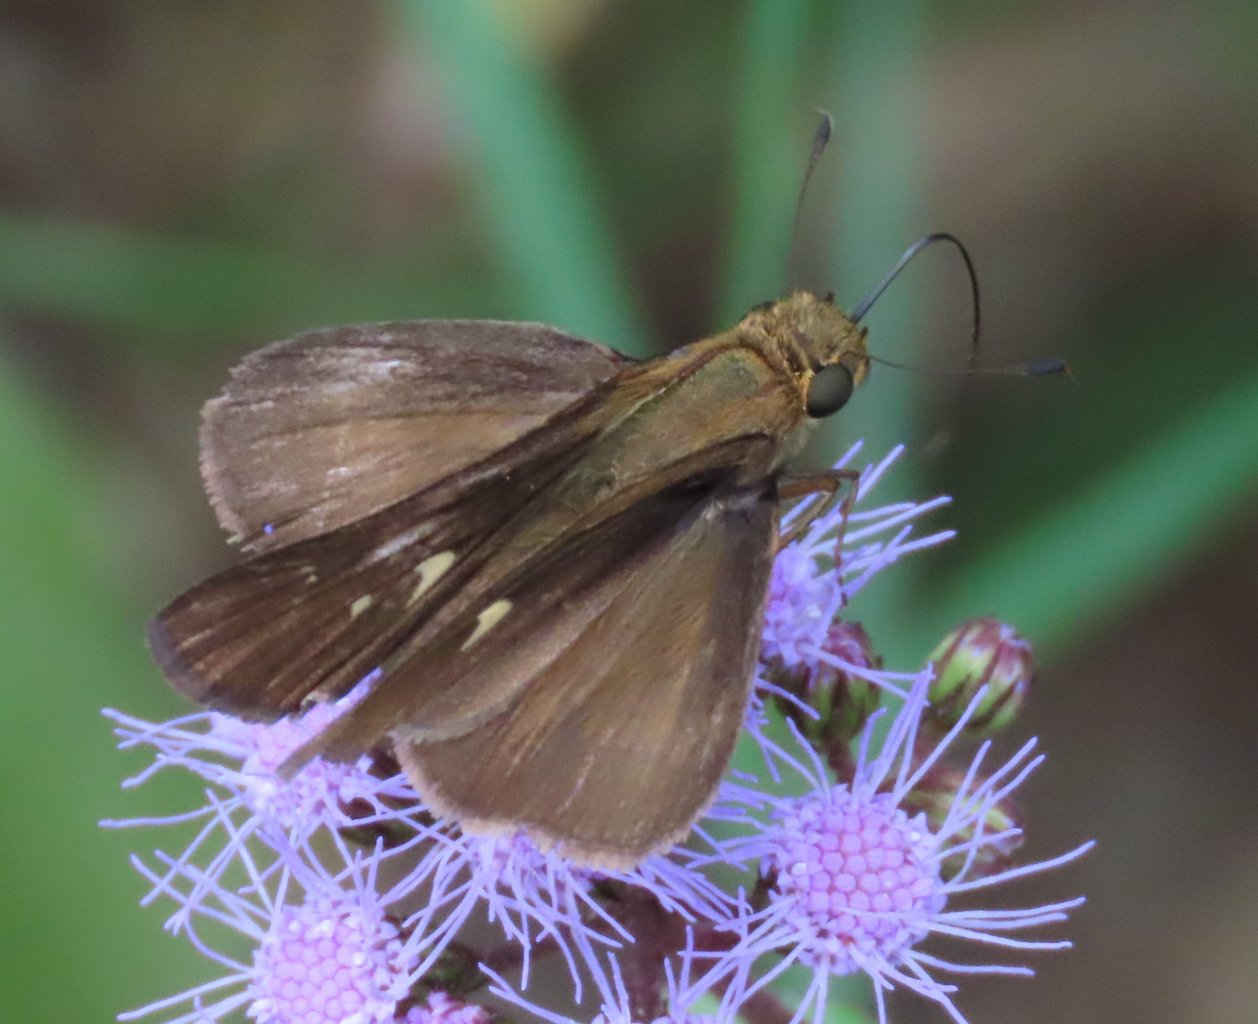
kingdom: Animalia
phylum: Arthropoda
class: Insecta
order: Lepidoptera
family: Hesperiidae
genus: Panoquina
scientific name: Panoquina ocola
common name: Ocola Skipper
